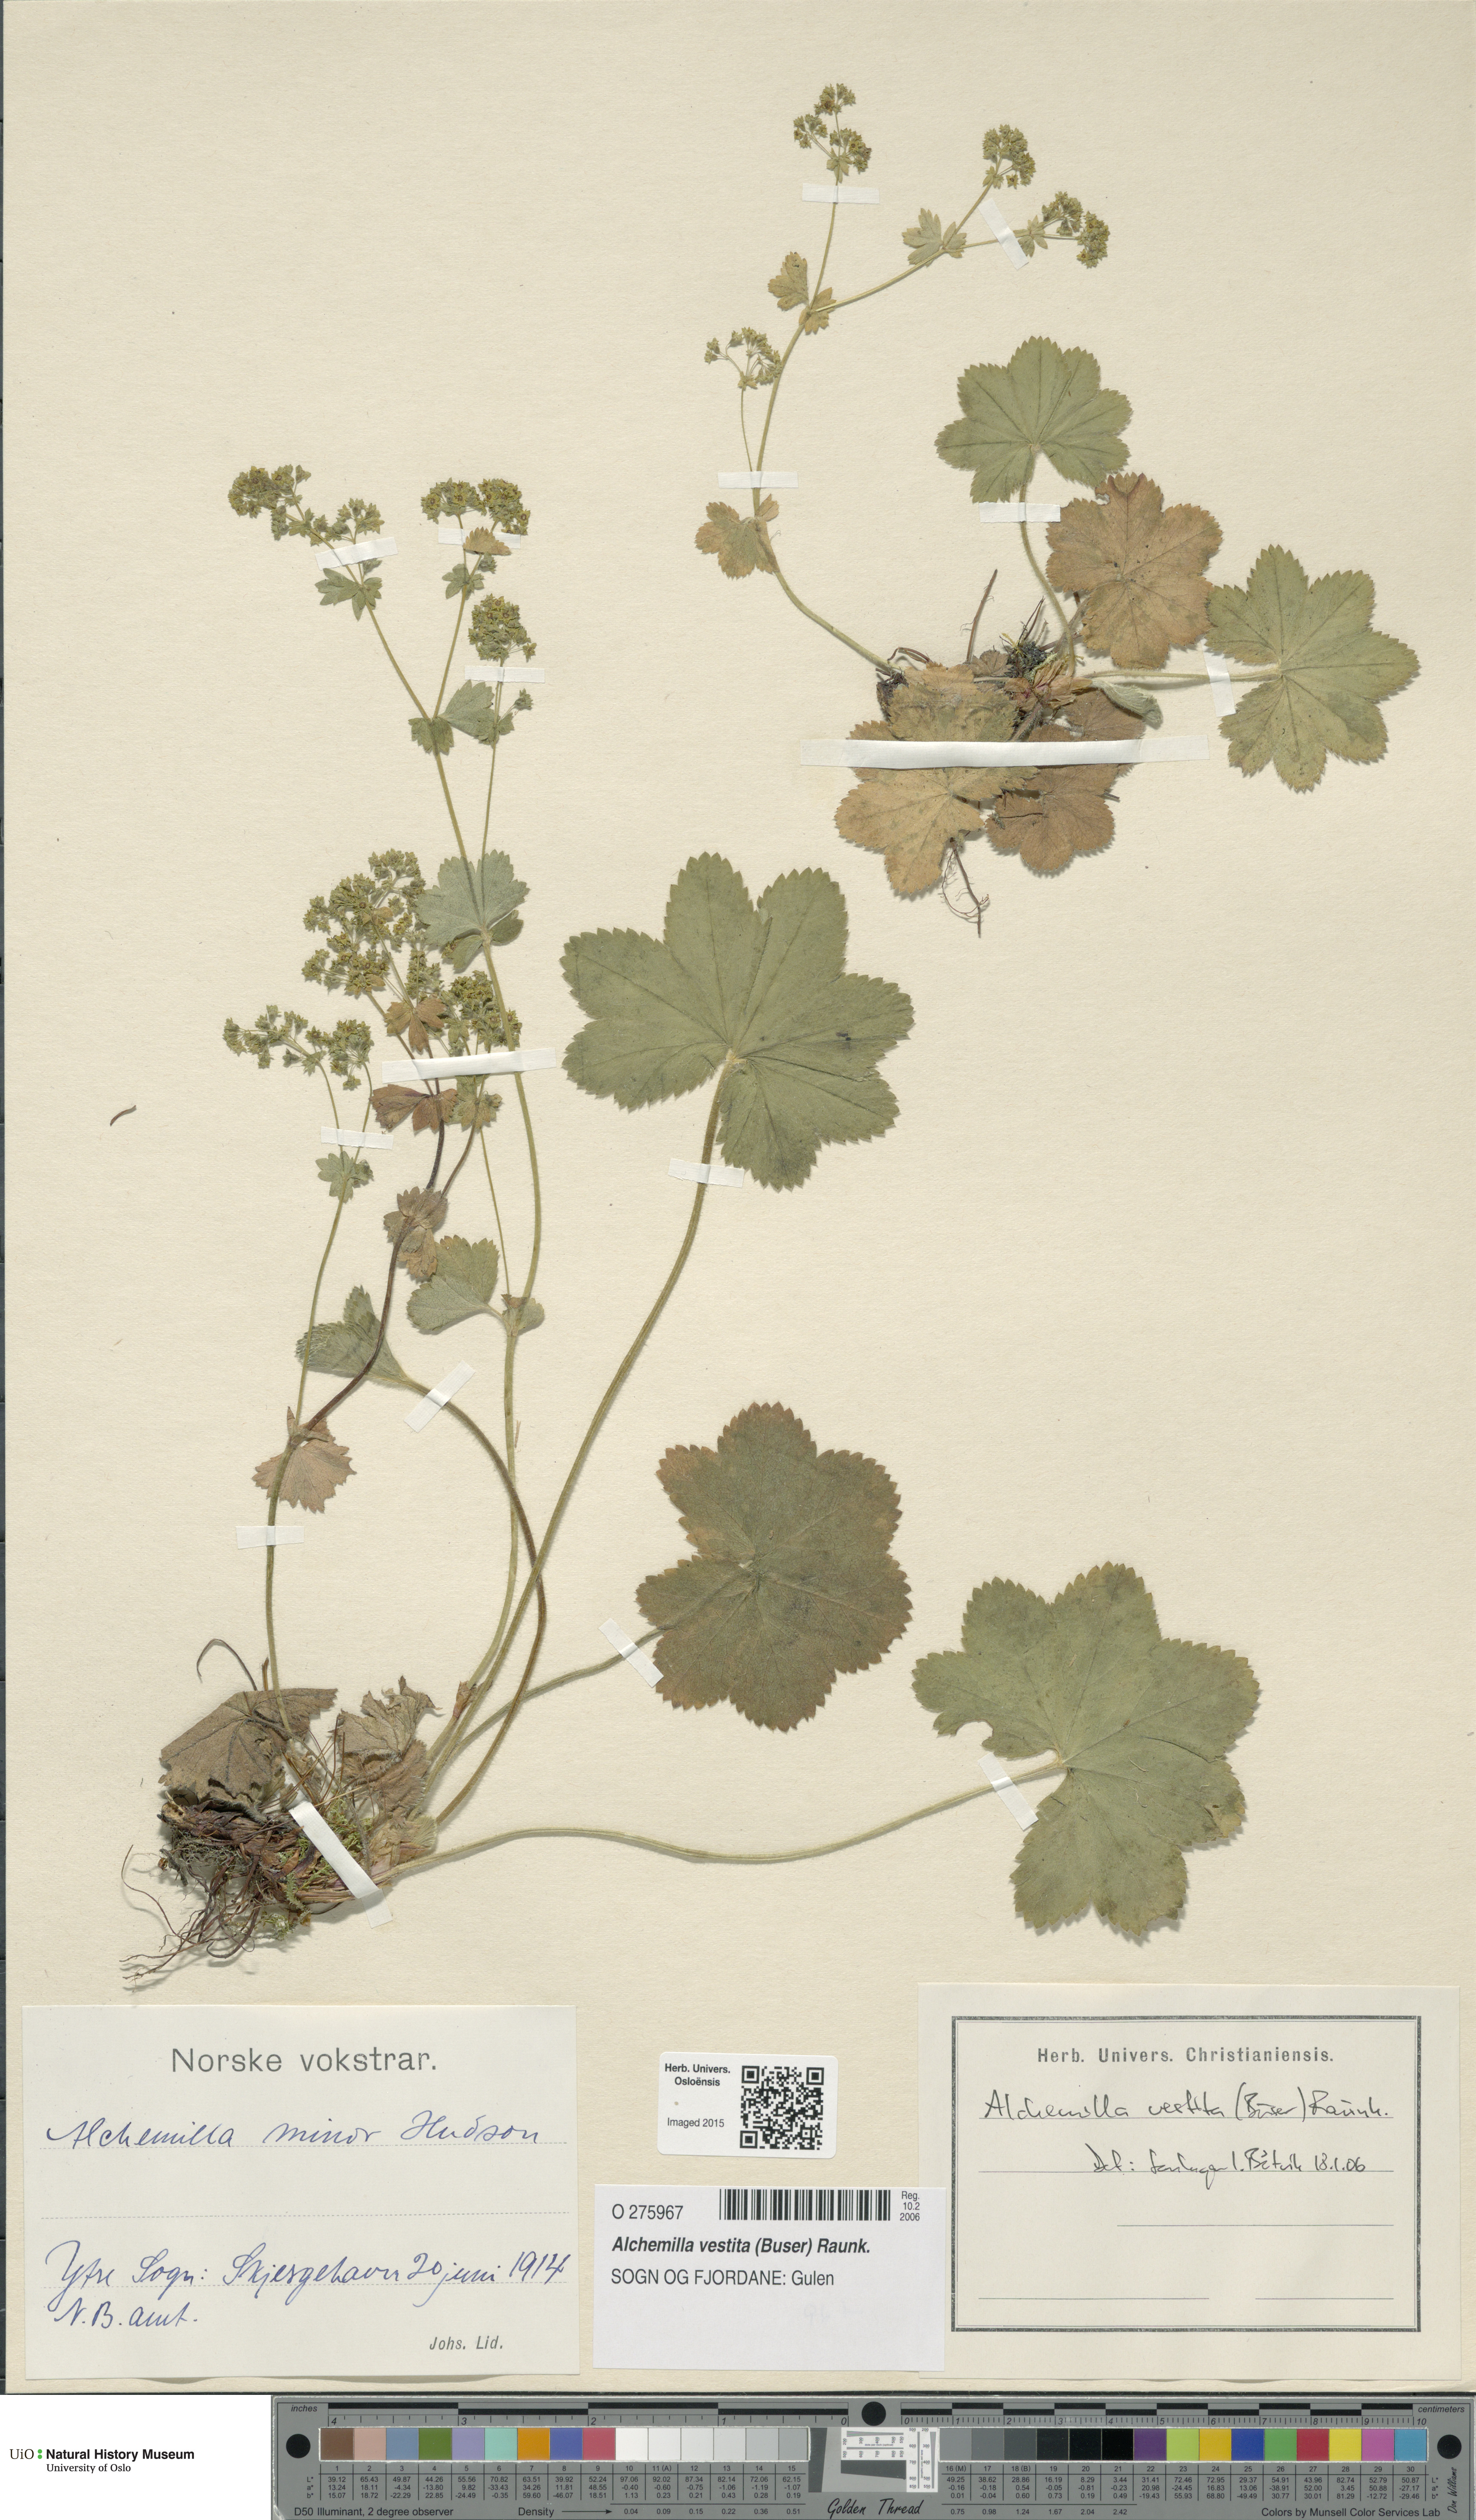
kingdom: Plantae
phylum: Tracheophyta
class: Magnoliopsida
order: Rosales
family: Rosaceae
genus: Alchemilla
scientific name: Alchemilla filicaulis
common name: Hairy lady's-mantle
